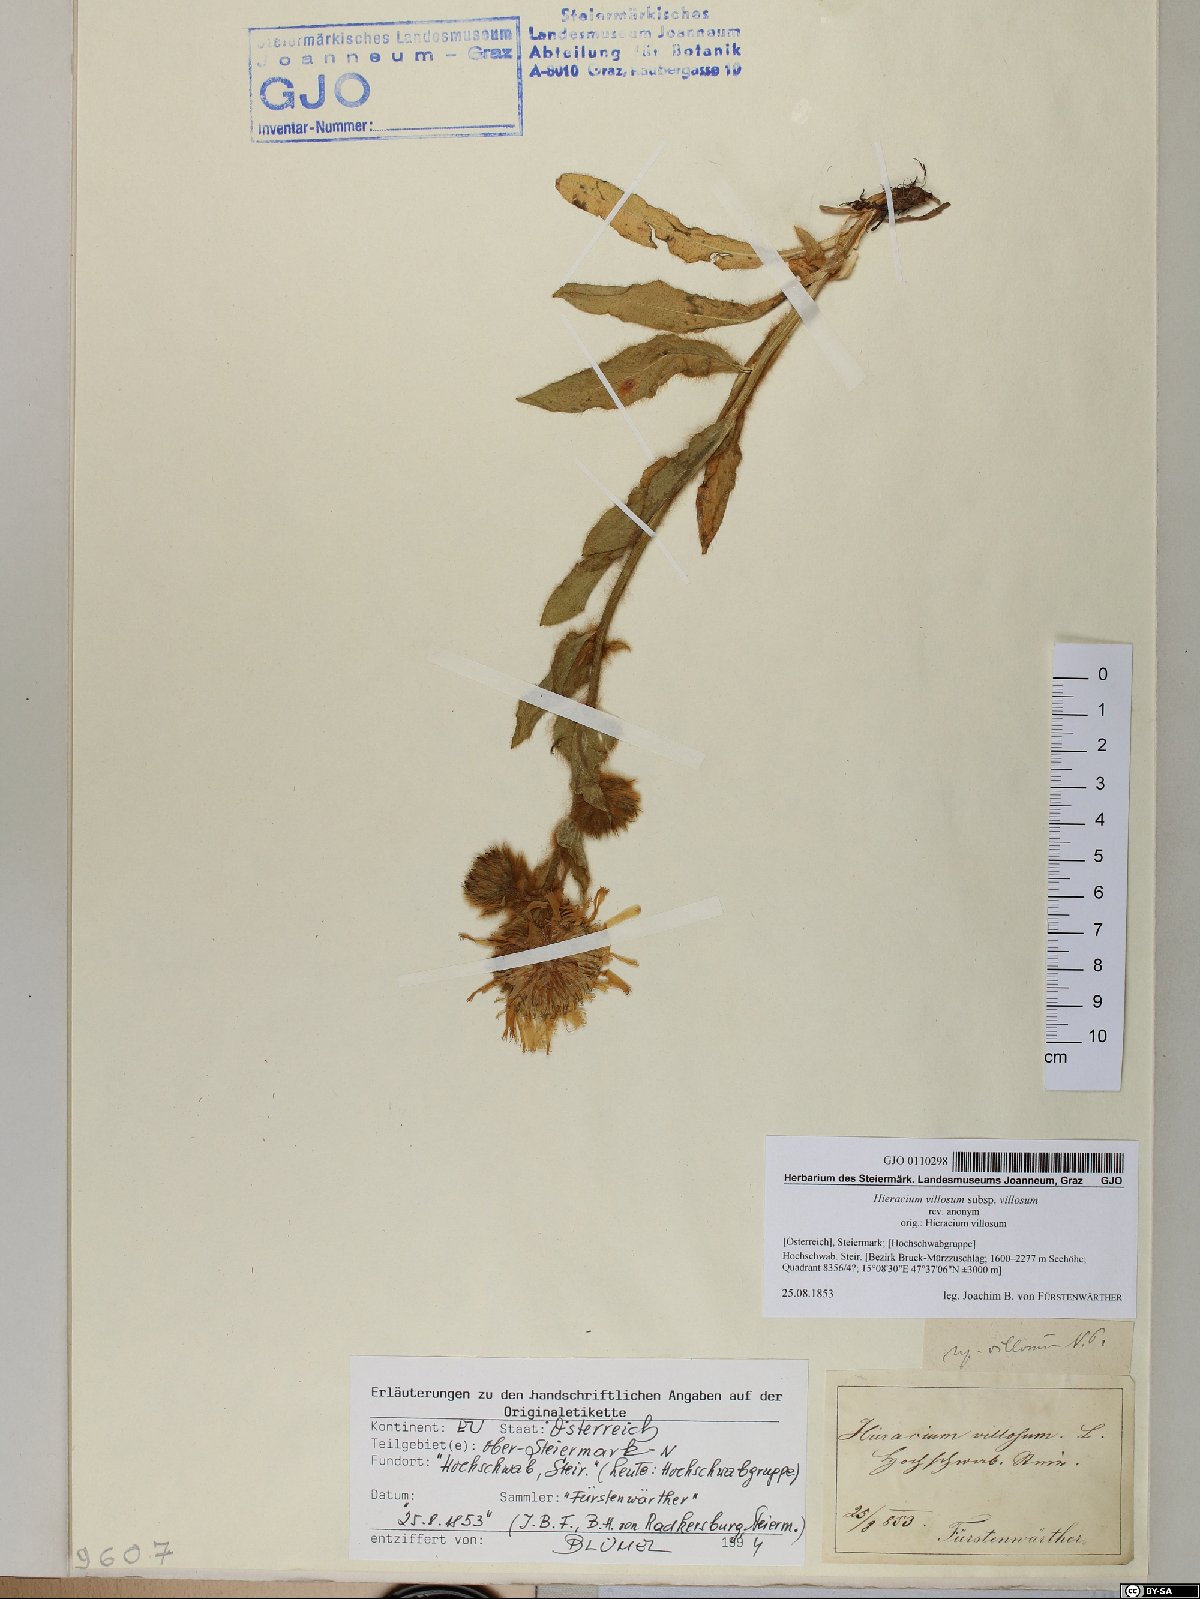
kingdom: Plantae
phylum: Tracheophyta
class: Magnoliopsida
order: Asterales
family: Asteraceae
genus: Hieracium
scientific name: Hieracium villosum
